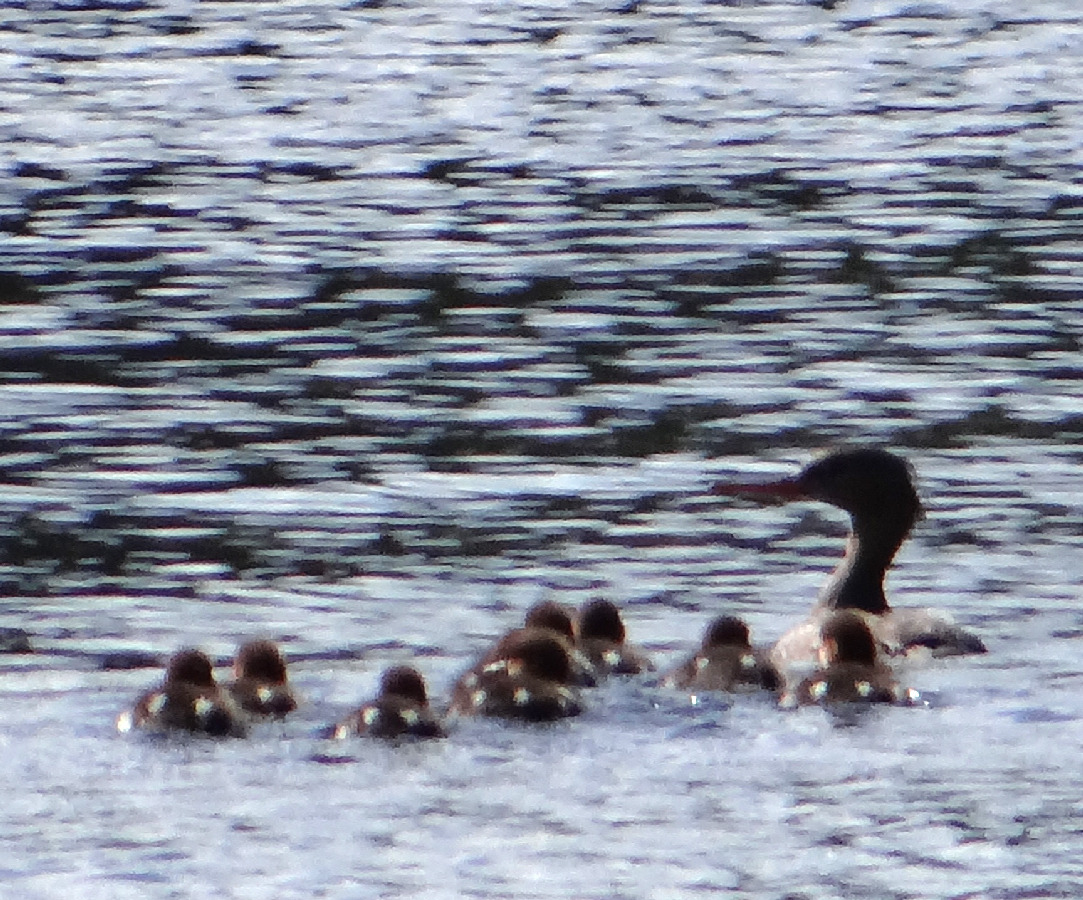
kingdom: Animalia
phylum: Chordata
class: Aves
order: Anseriformes
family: Anatidae
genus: Mergus
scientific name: Mergus serrator
